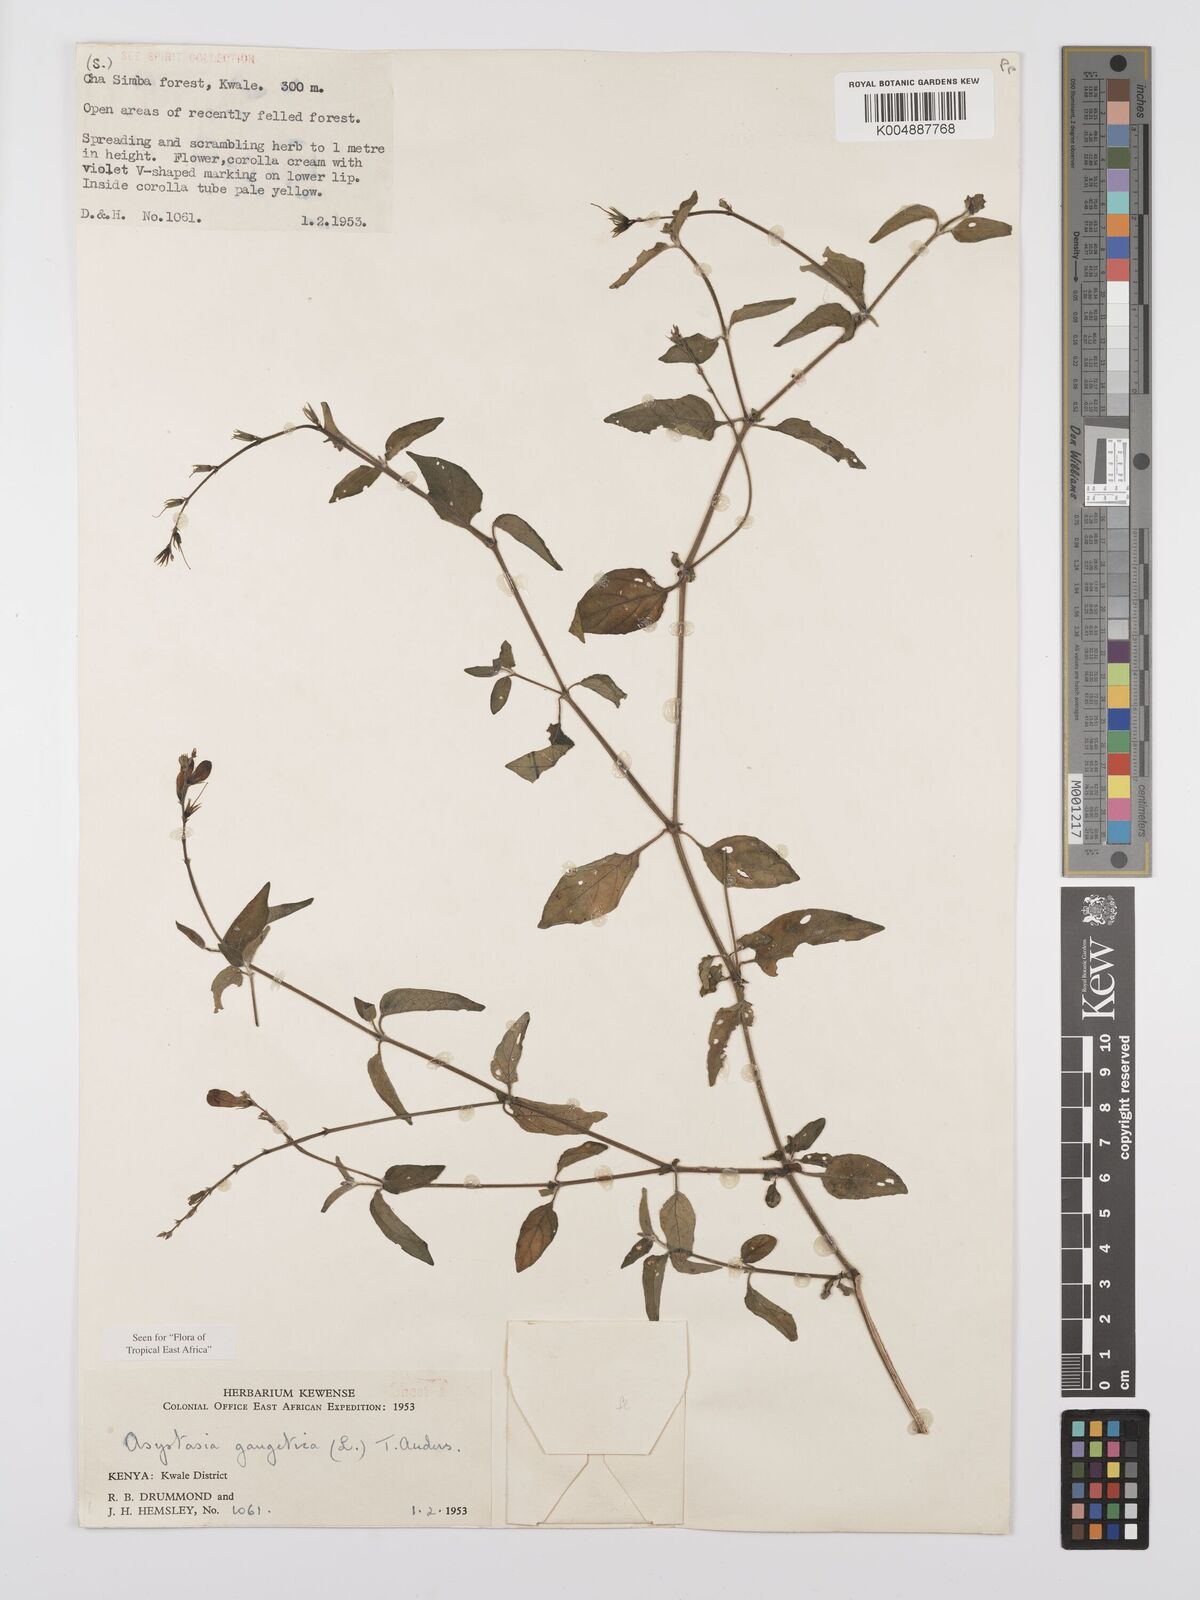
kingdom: Plantae
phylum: Tracheophyta
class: Magnoliopsida
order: Lamiales
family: Acanthaceae
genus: Asystasia
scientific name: Asystasia gangetica
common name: Chinese violet
